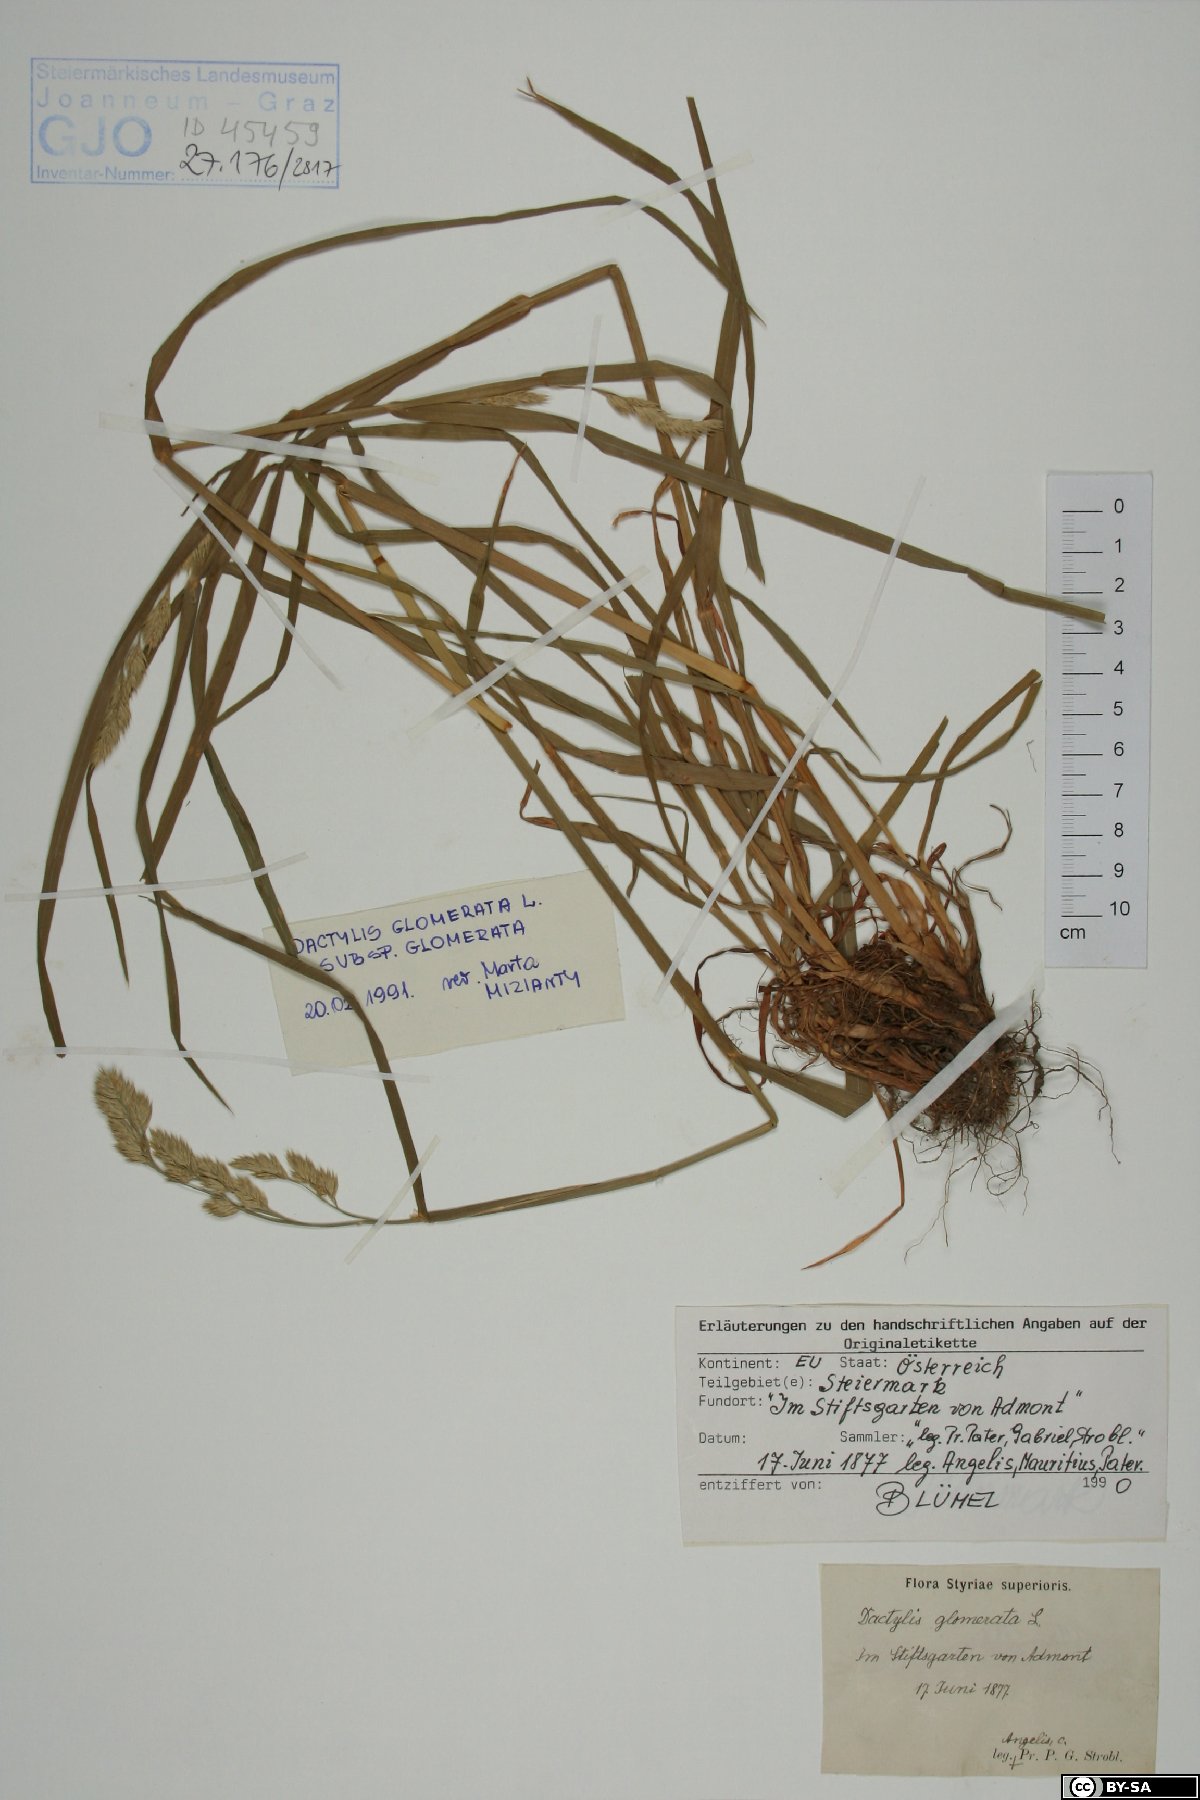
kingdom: Plantae
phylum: Tracheophyta
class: Liliopsida
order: Poales
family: Poaceae
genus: Dactylis
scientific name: Dactylis glomerata
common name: Orchardgrass
